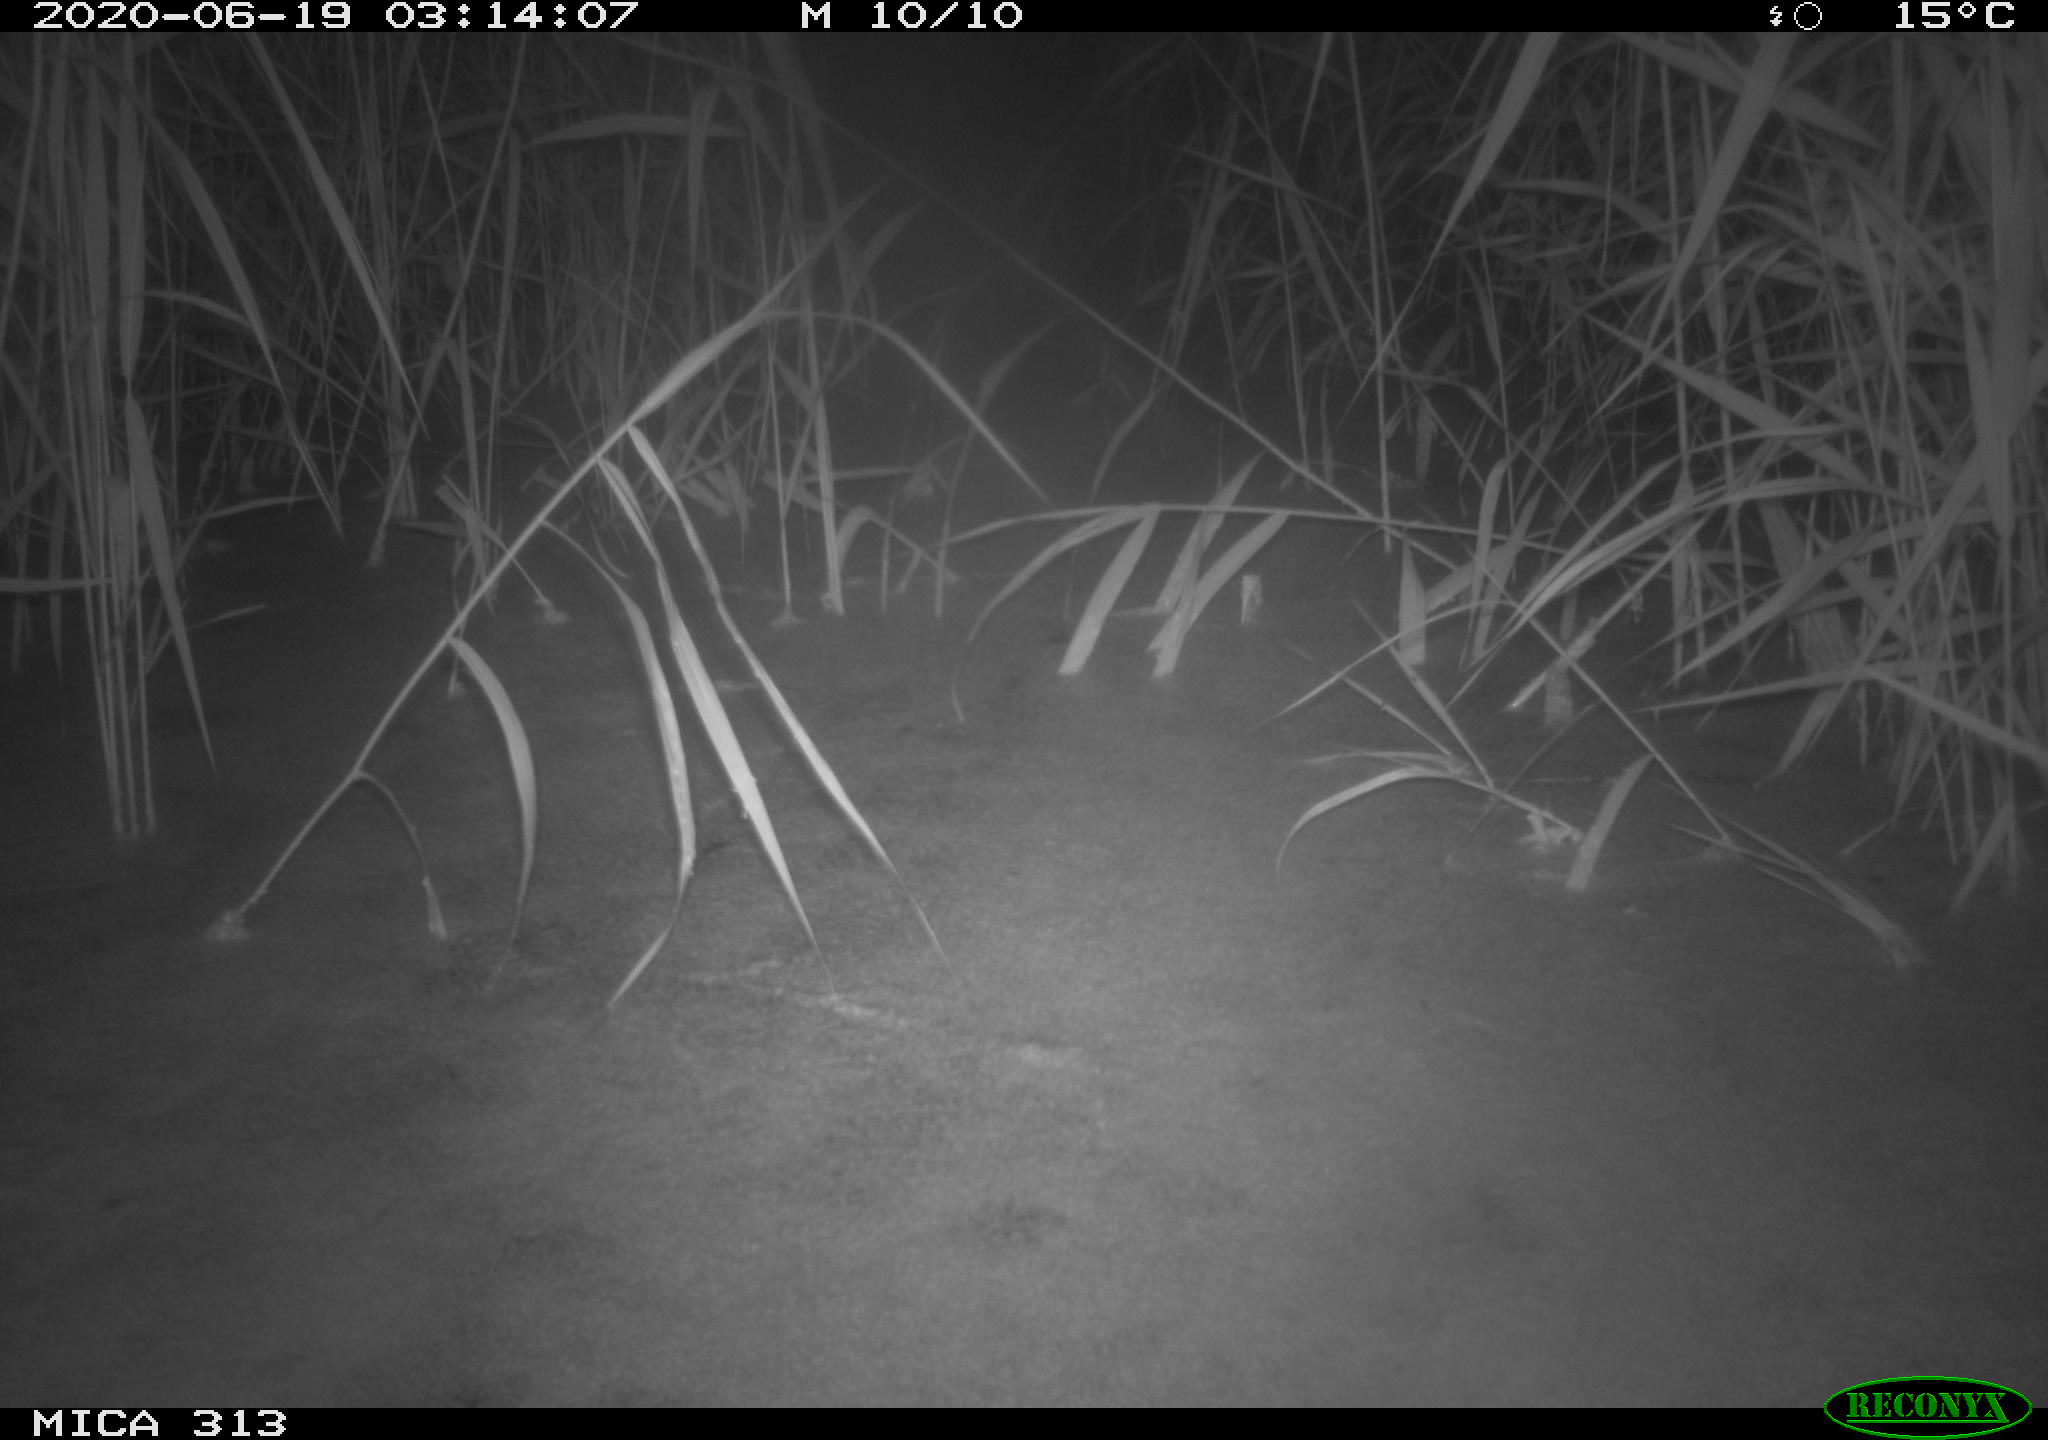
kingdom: Animalia
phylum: Chordata
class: Mammalia
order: Rodentia
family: Cricetidae
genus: Ondatra
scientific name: Ondatra zibethicus
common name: Muskrat
